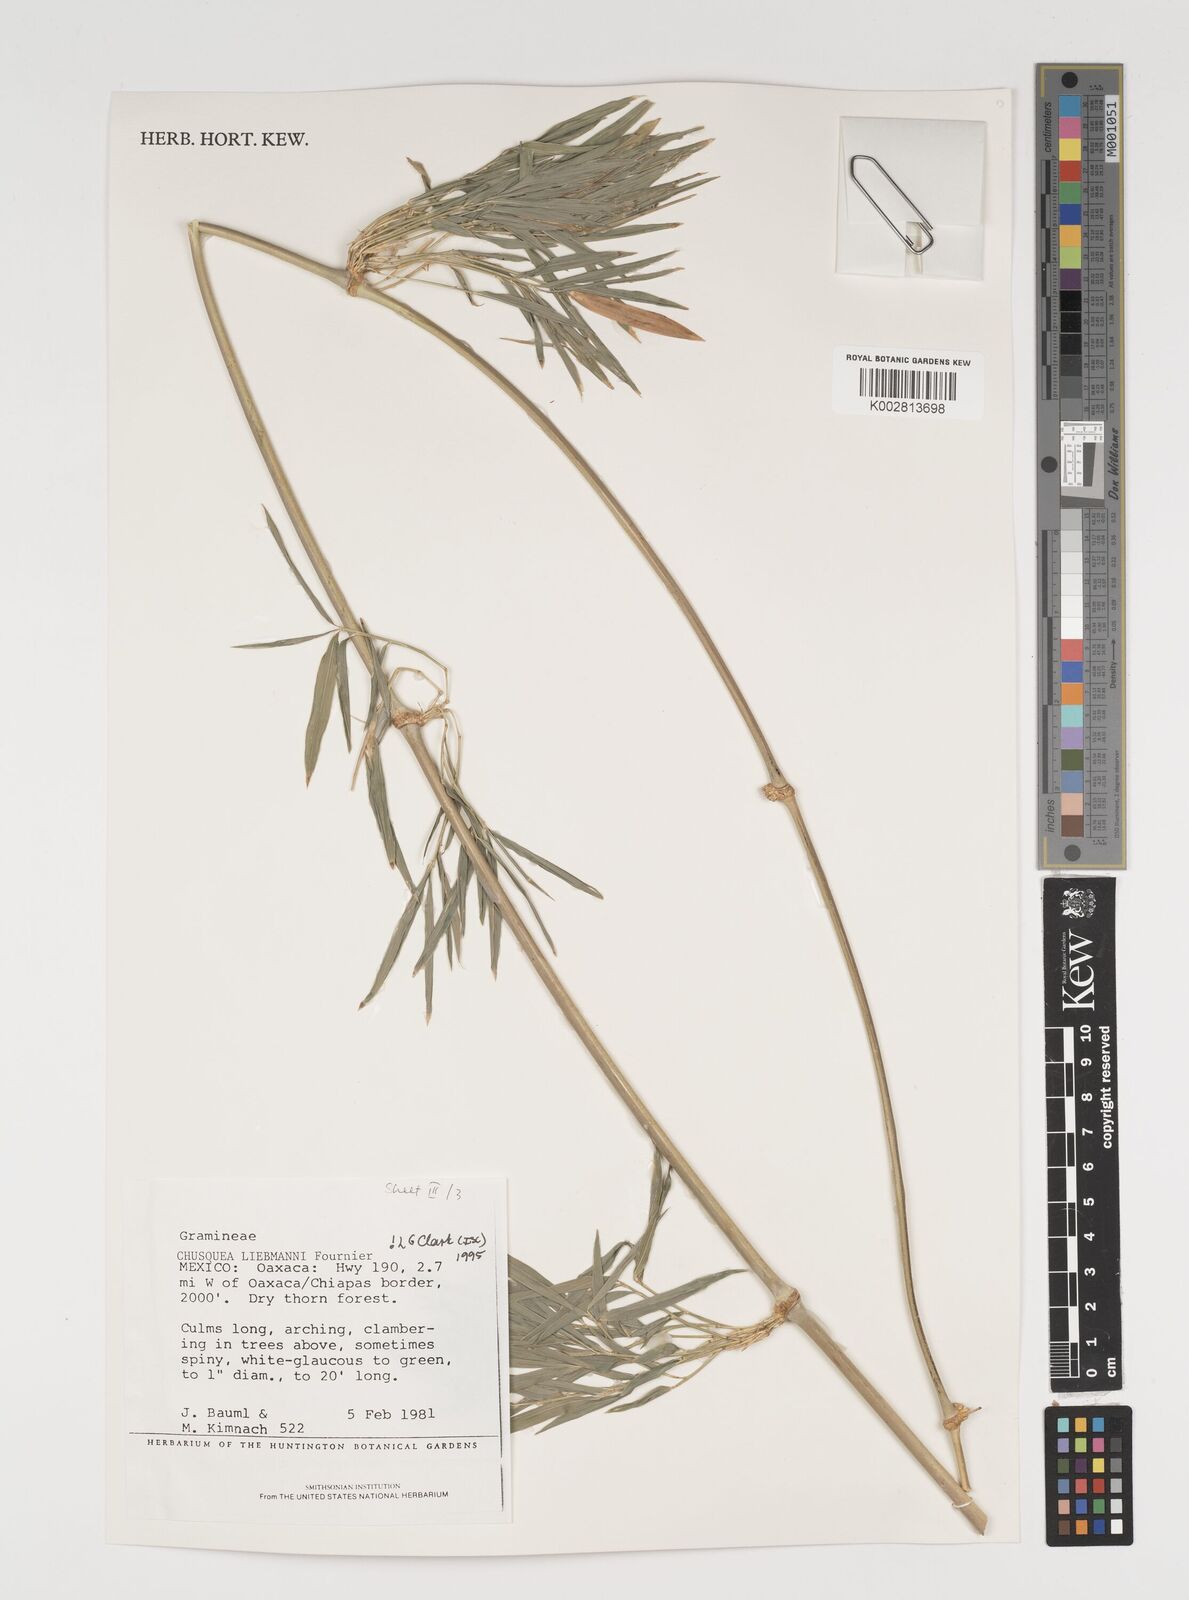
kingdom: Plantae
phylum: Tracheophyta
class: Liliopsida
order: Poales
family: Poaceae
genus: Chusquea
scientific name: Chusquea liebmannii
